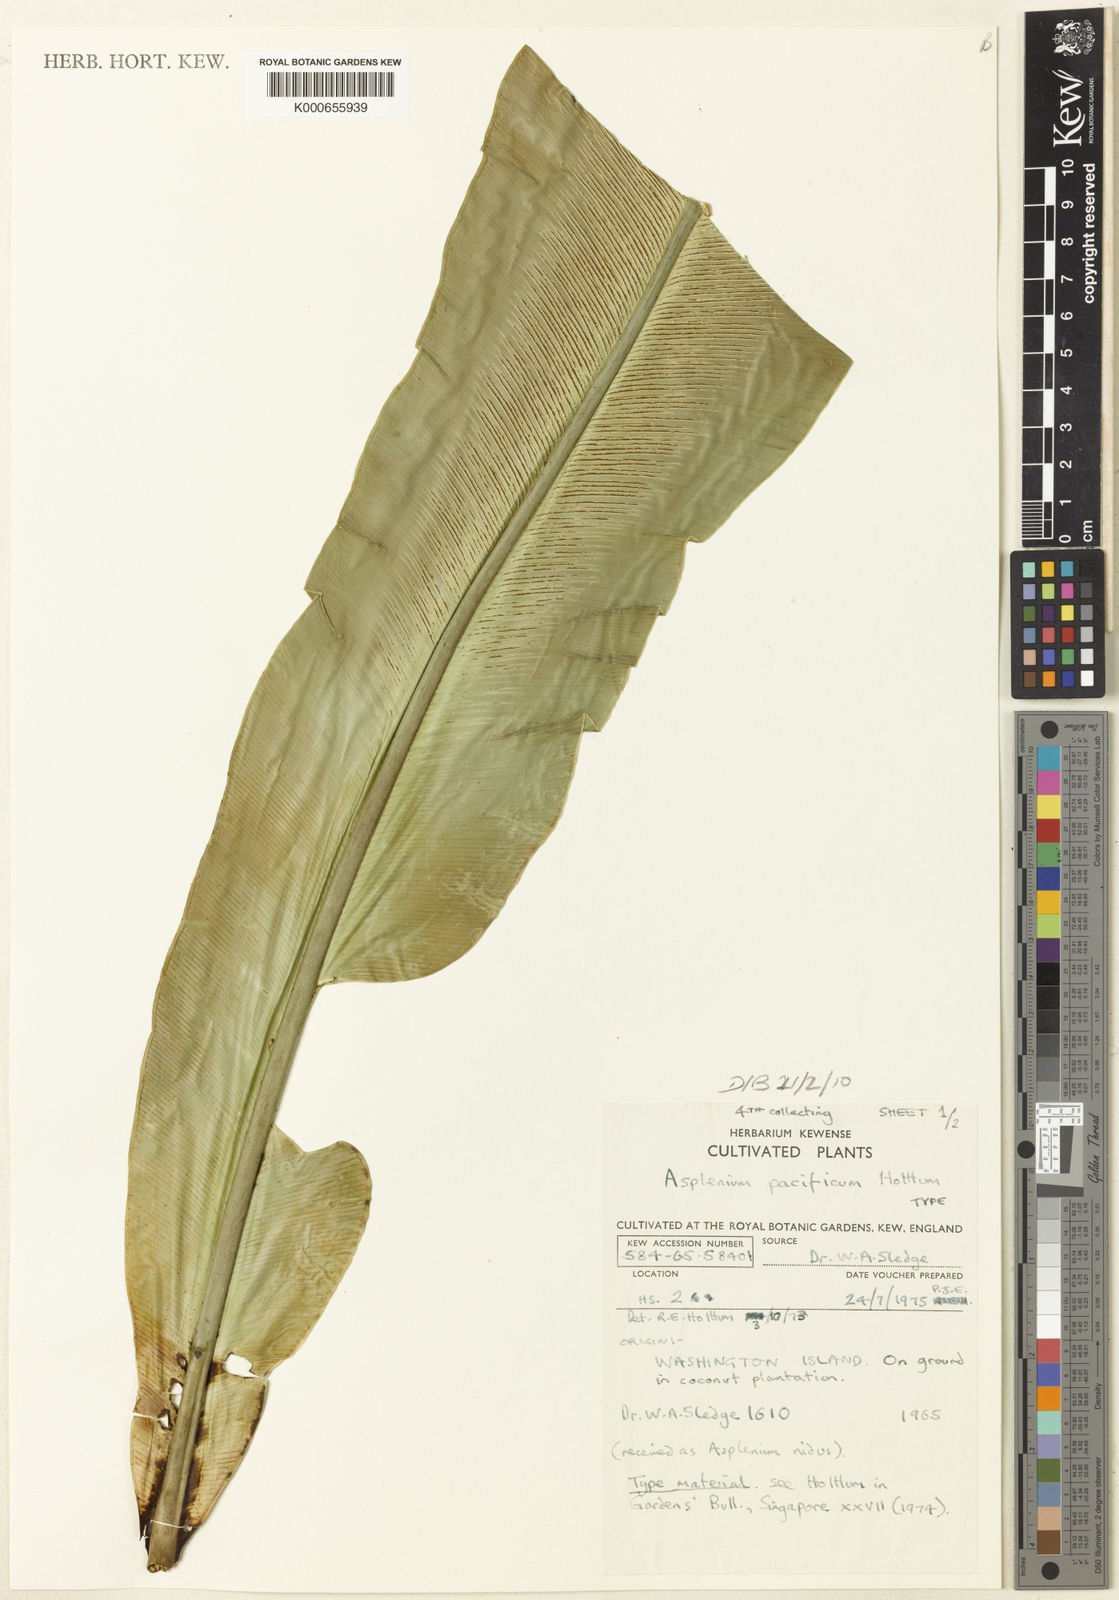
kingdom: Plantae
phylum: Tracheophyta
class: Polypodiopsida
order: Polypodiales
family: Aspleniaceae
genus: Asplenium
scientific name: Asplenium pacificum
